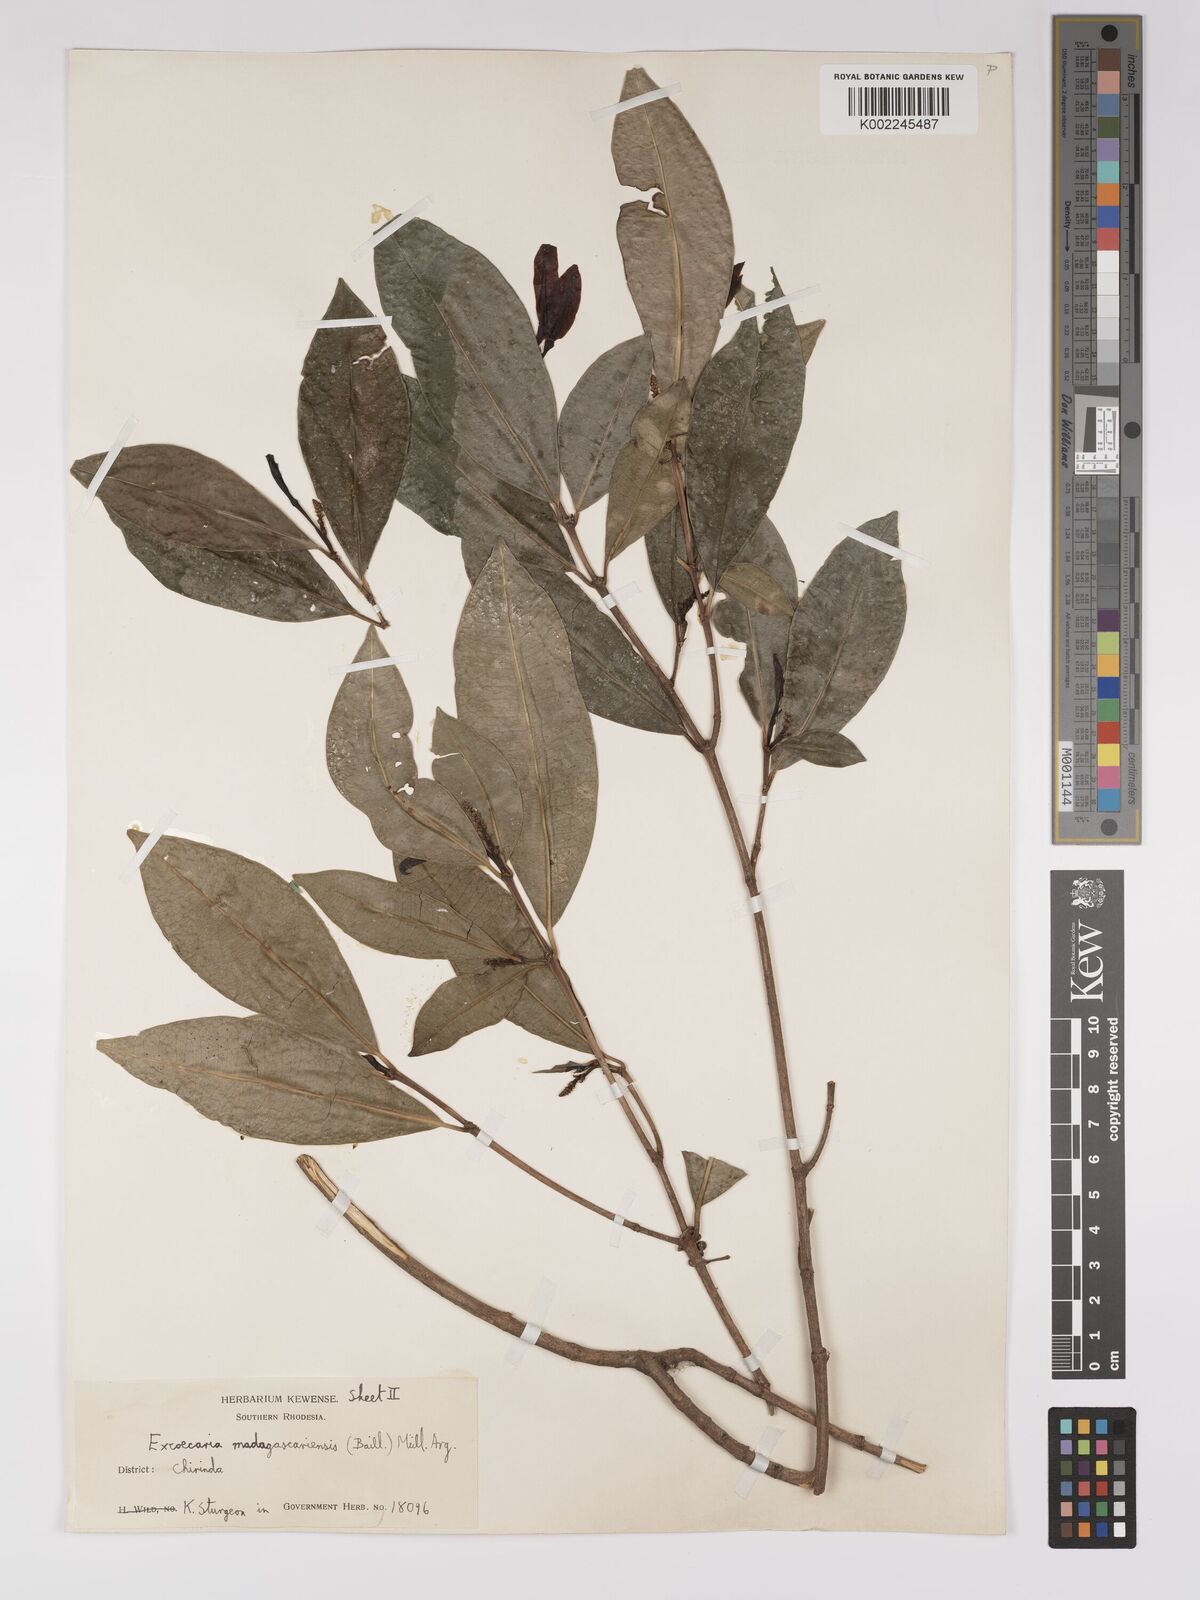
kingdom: Plantae
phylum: Tracheophyta
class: Magnoliopsida
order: Malpighiales
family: Euphorbiaceae
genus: Excoecaria
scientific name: Excoecaria madagascariensis
